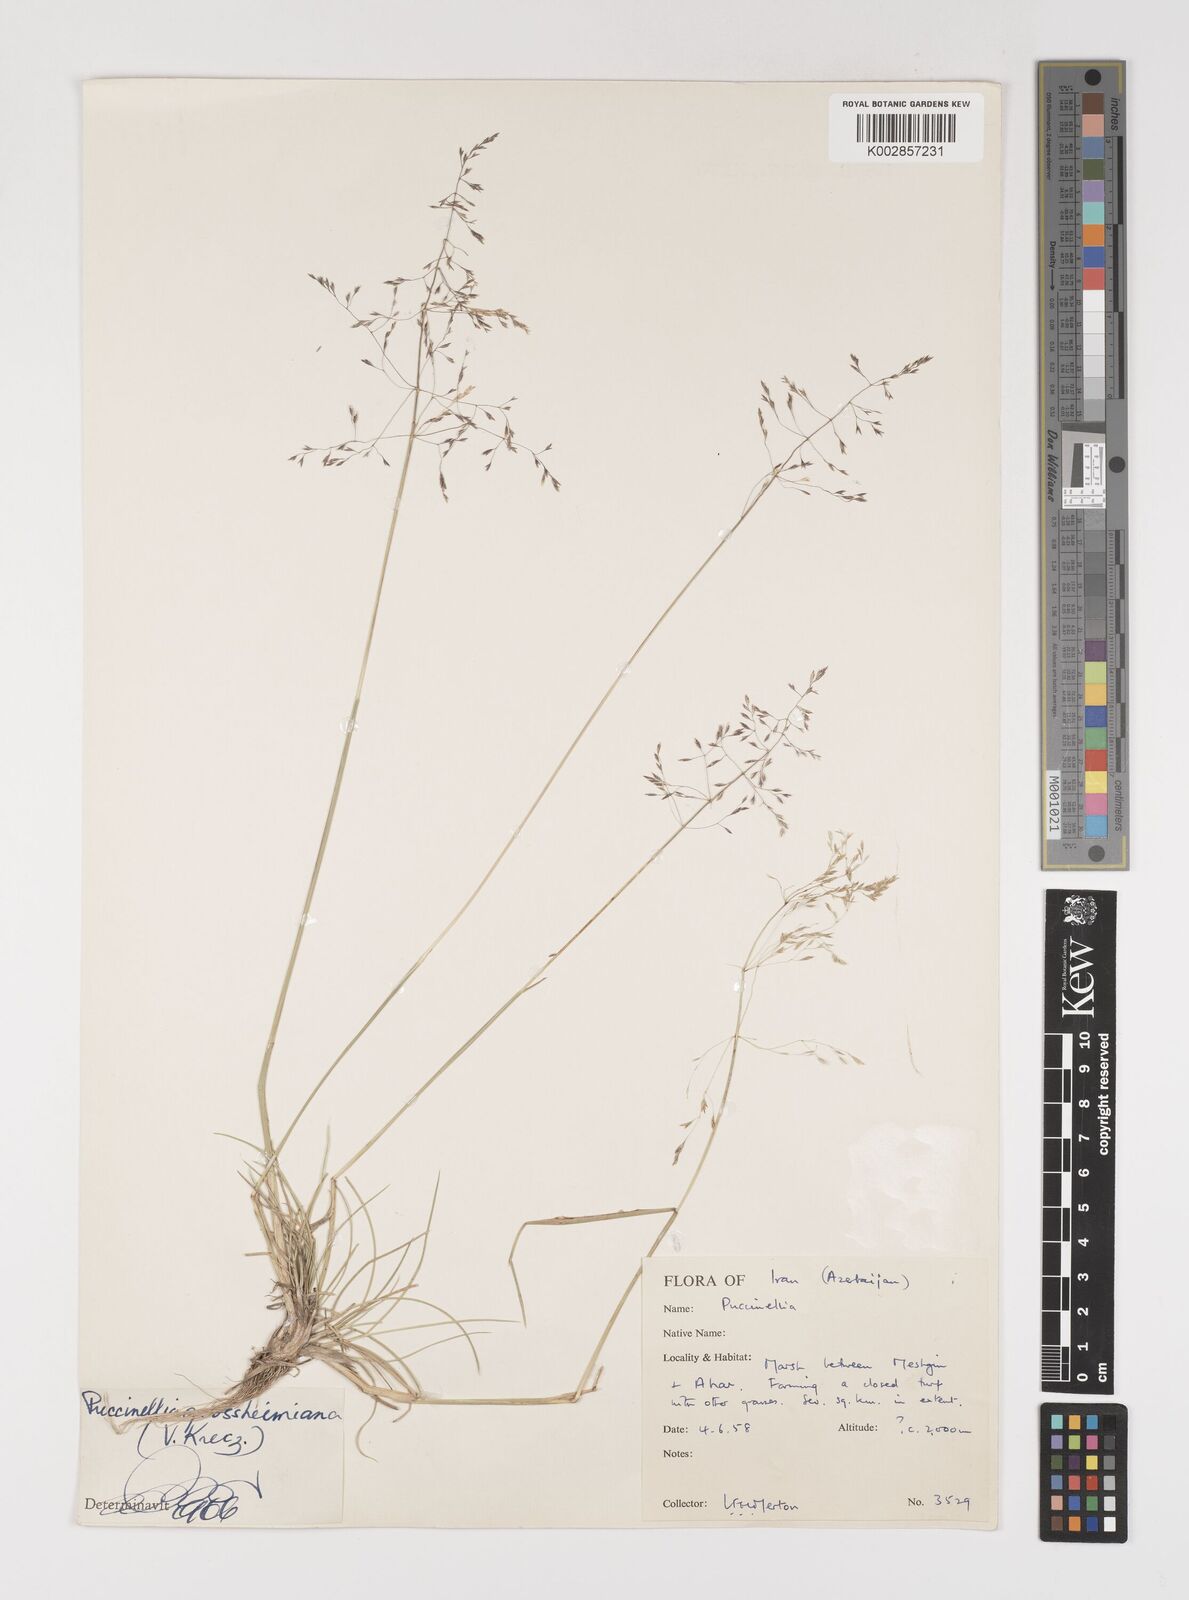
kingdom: Plantae
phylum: Tracheophyta
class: Liliopsida
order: Poales
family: Poaceae
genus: Puccinellia
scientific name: Puccinellia grossheimiana
